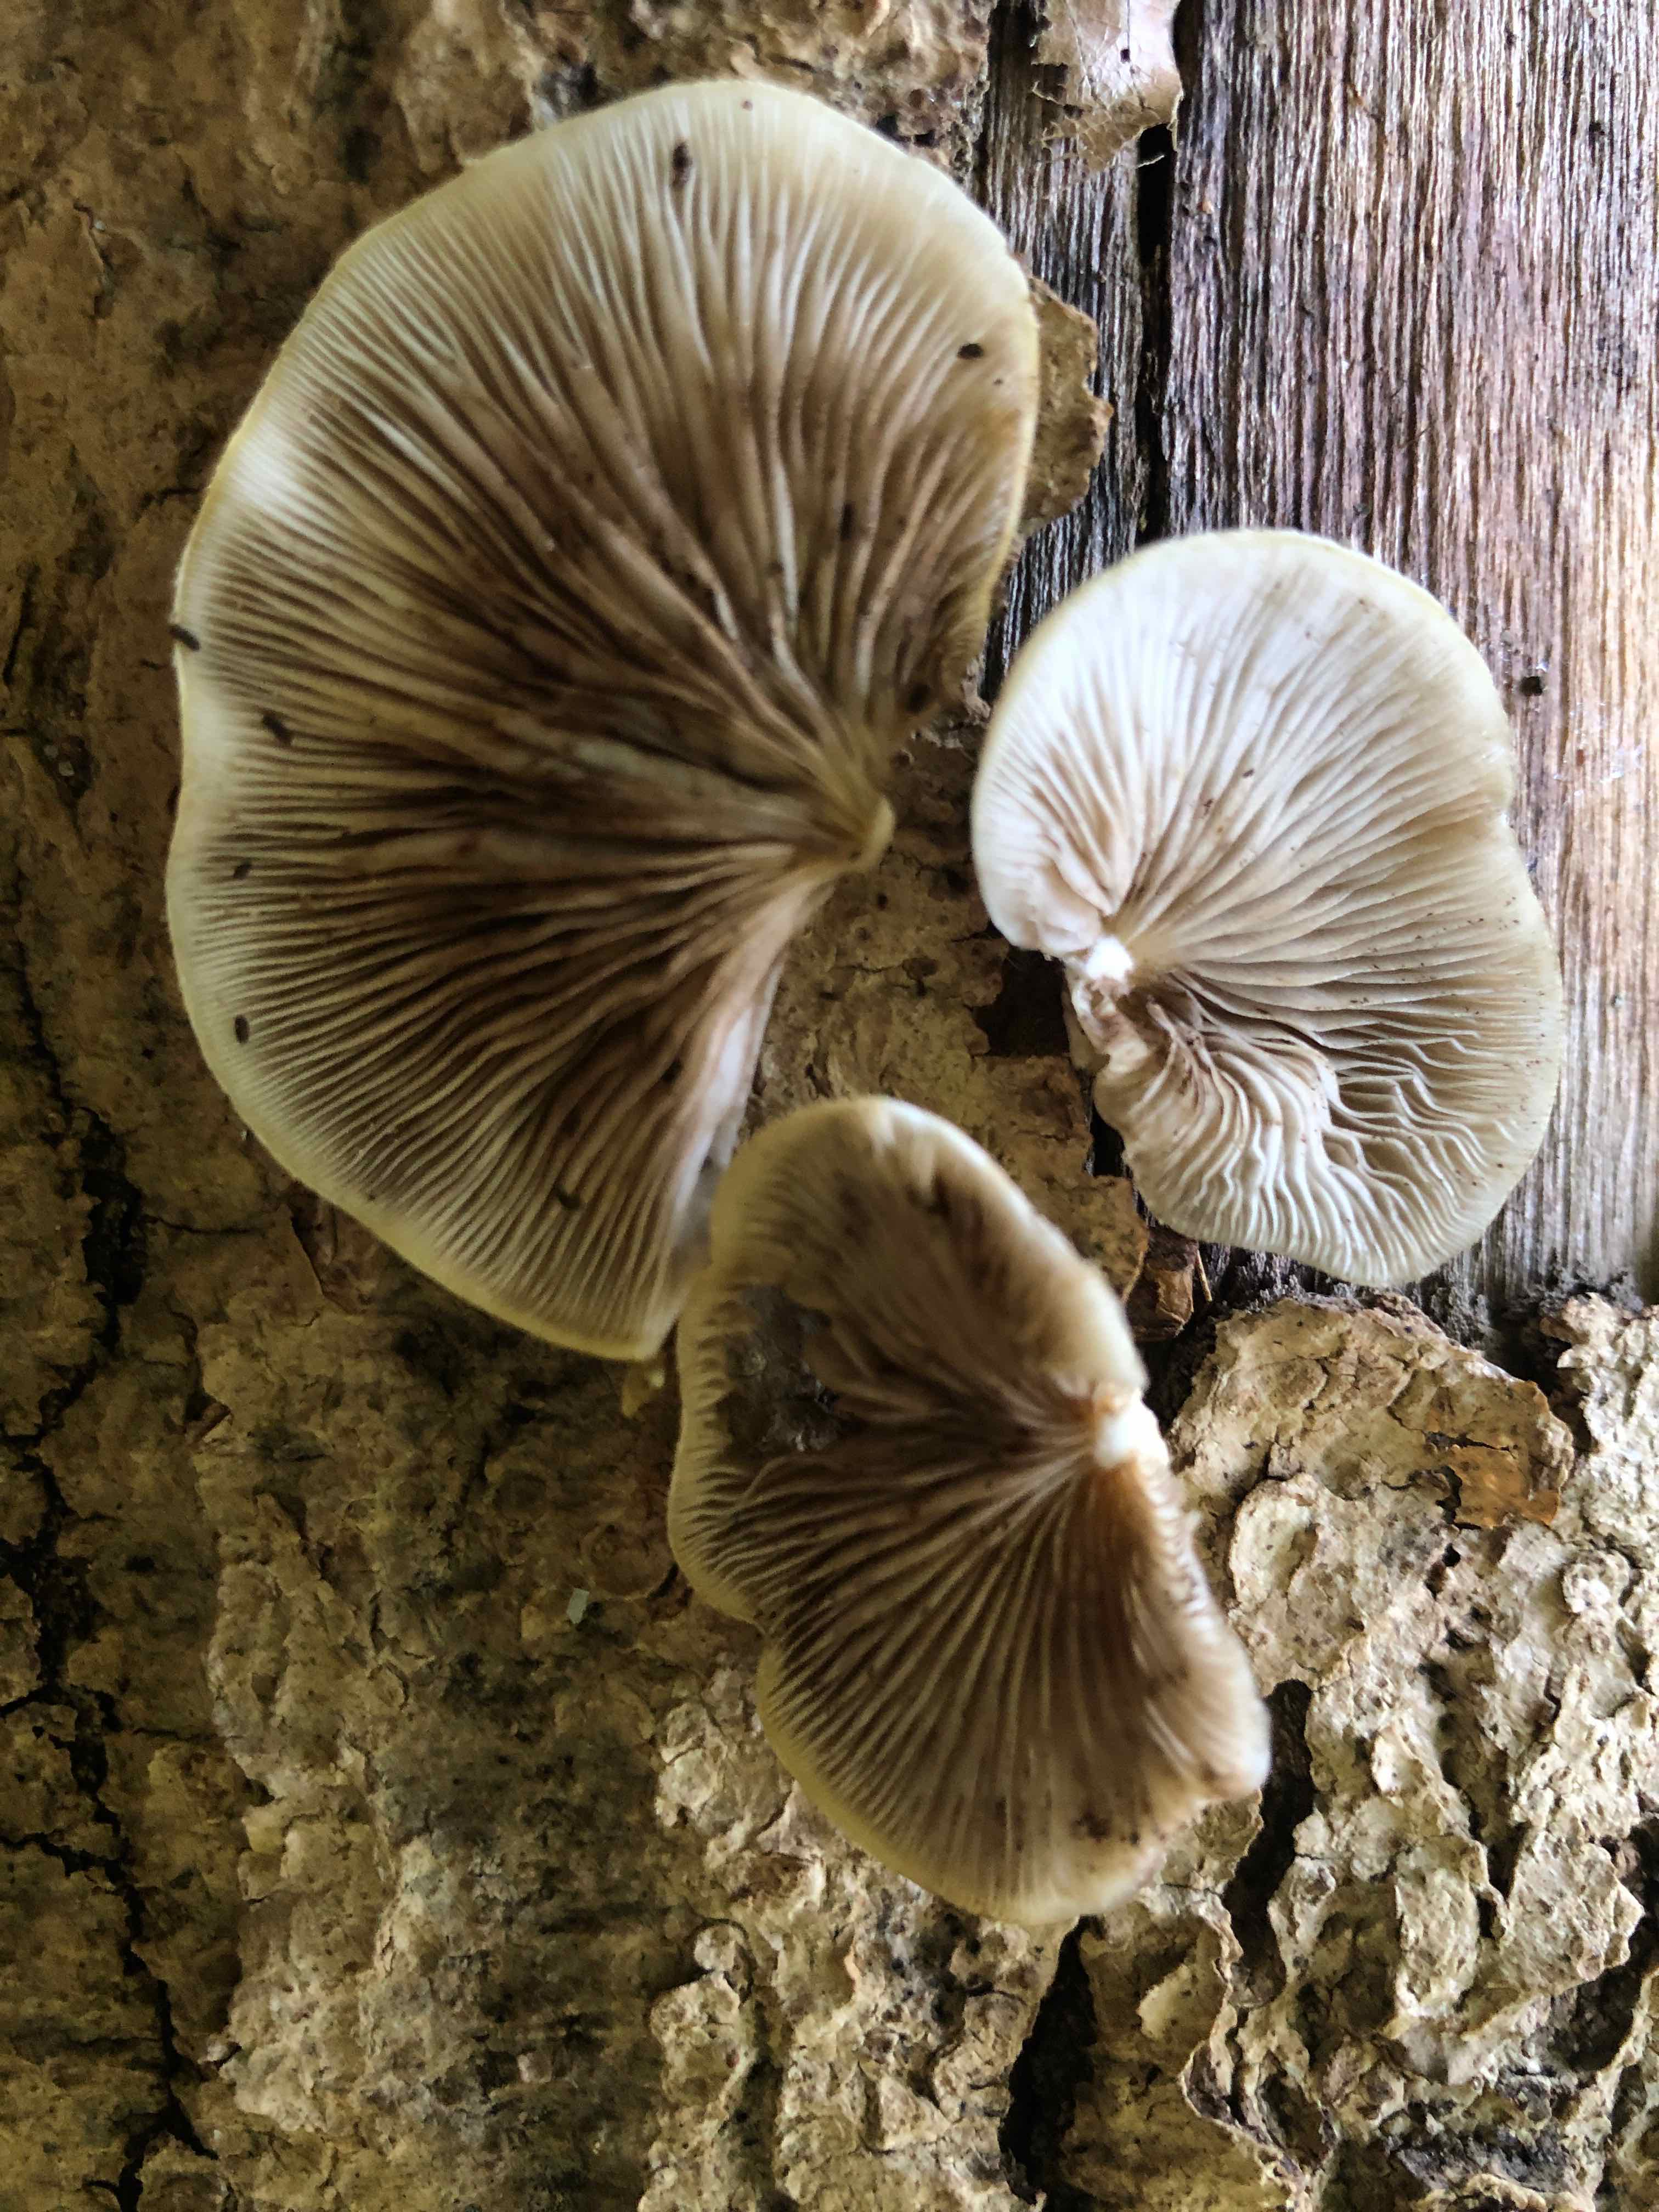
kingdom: Fungi
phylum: Basidiomycota
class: Agaricomycetes
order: Agaricales
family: Crepidotaceae
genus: Crepidotus
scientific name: Crepidotus mollis
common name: blød muslingesvamp
